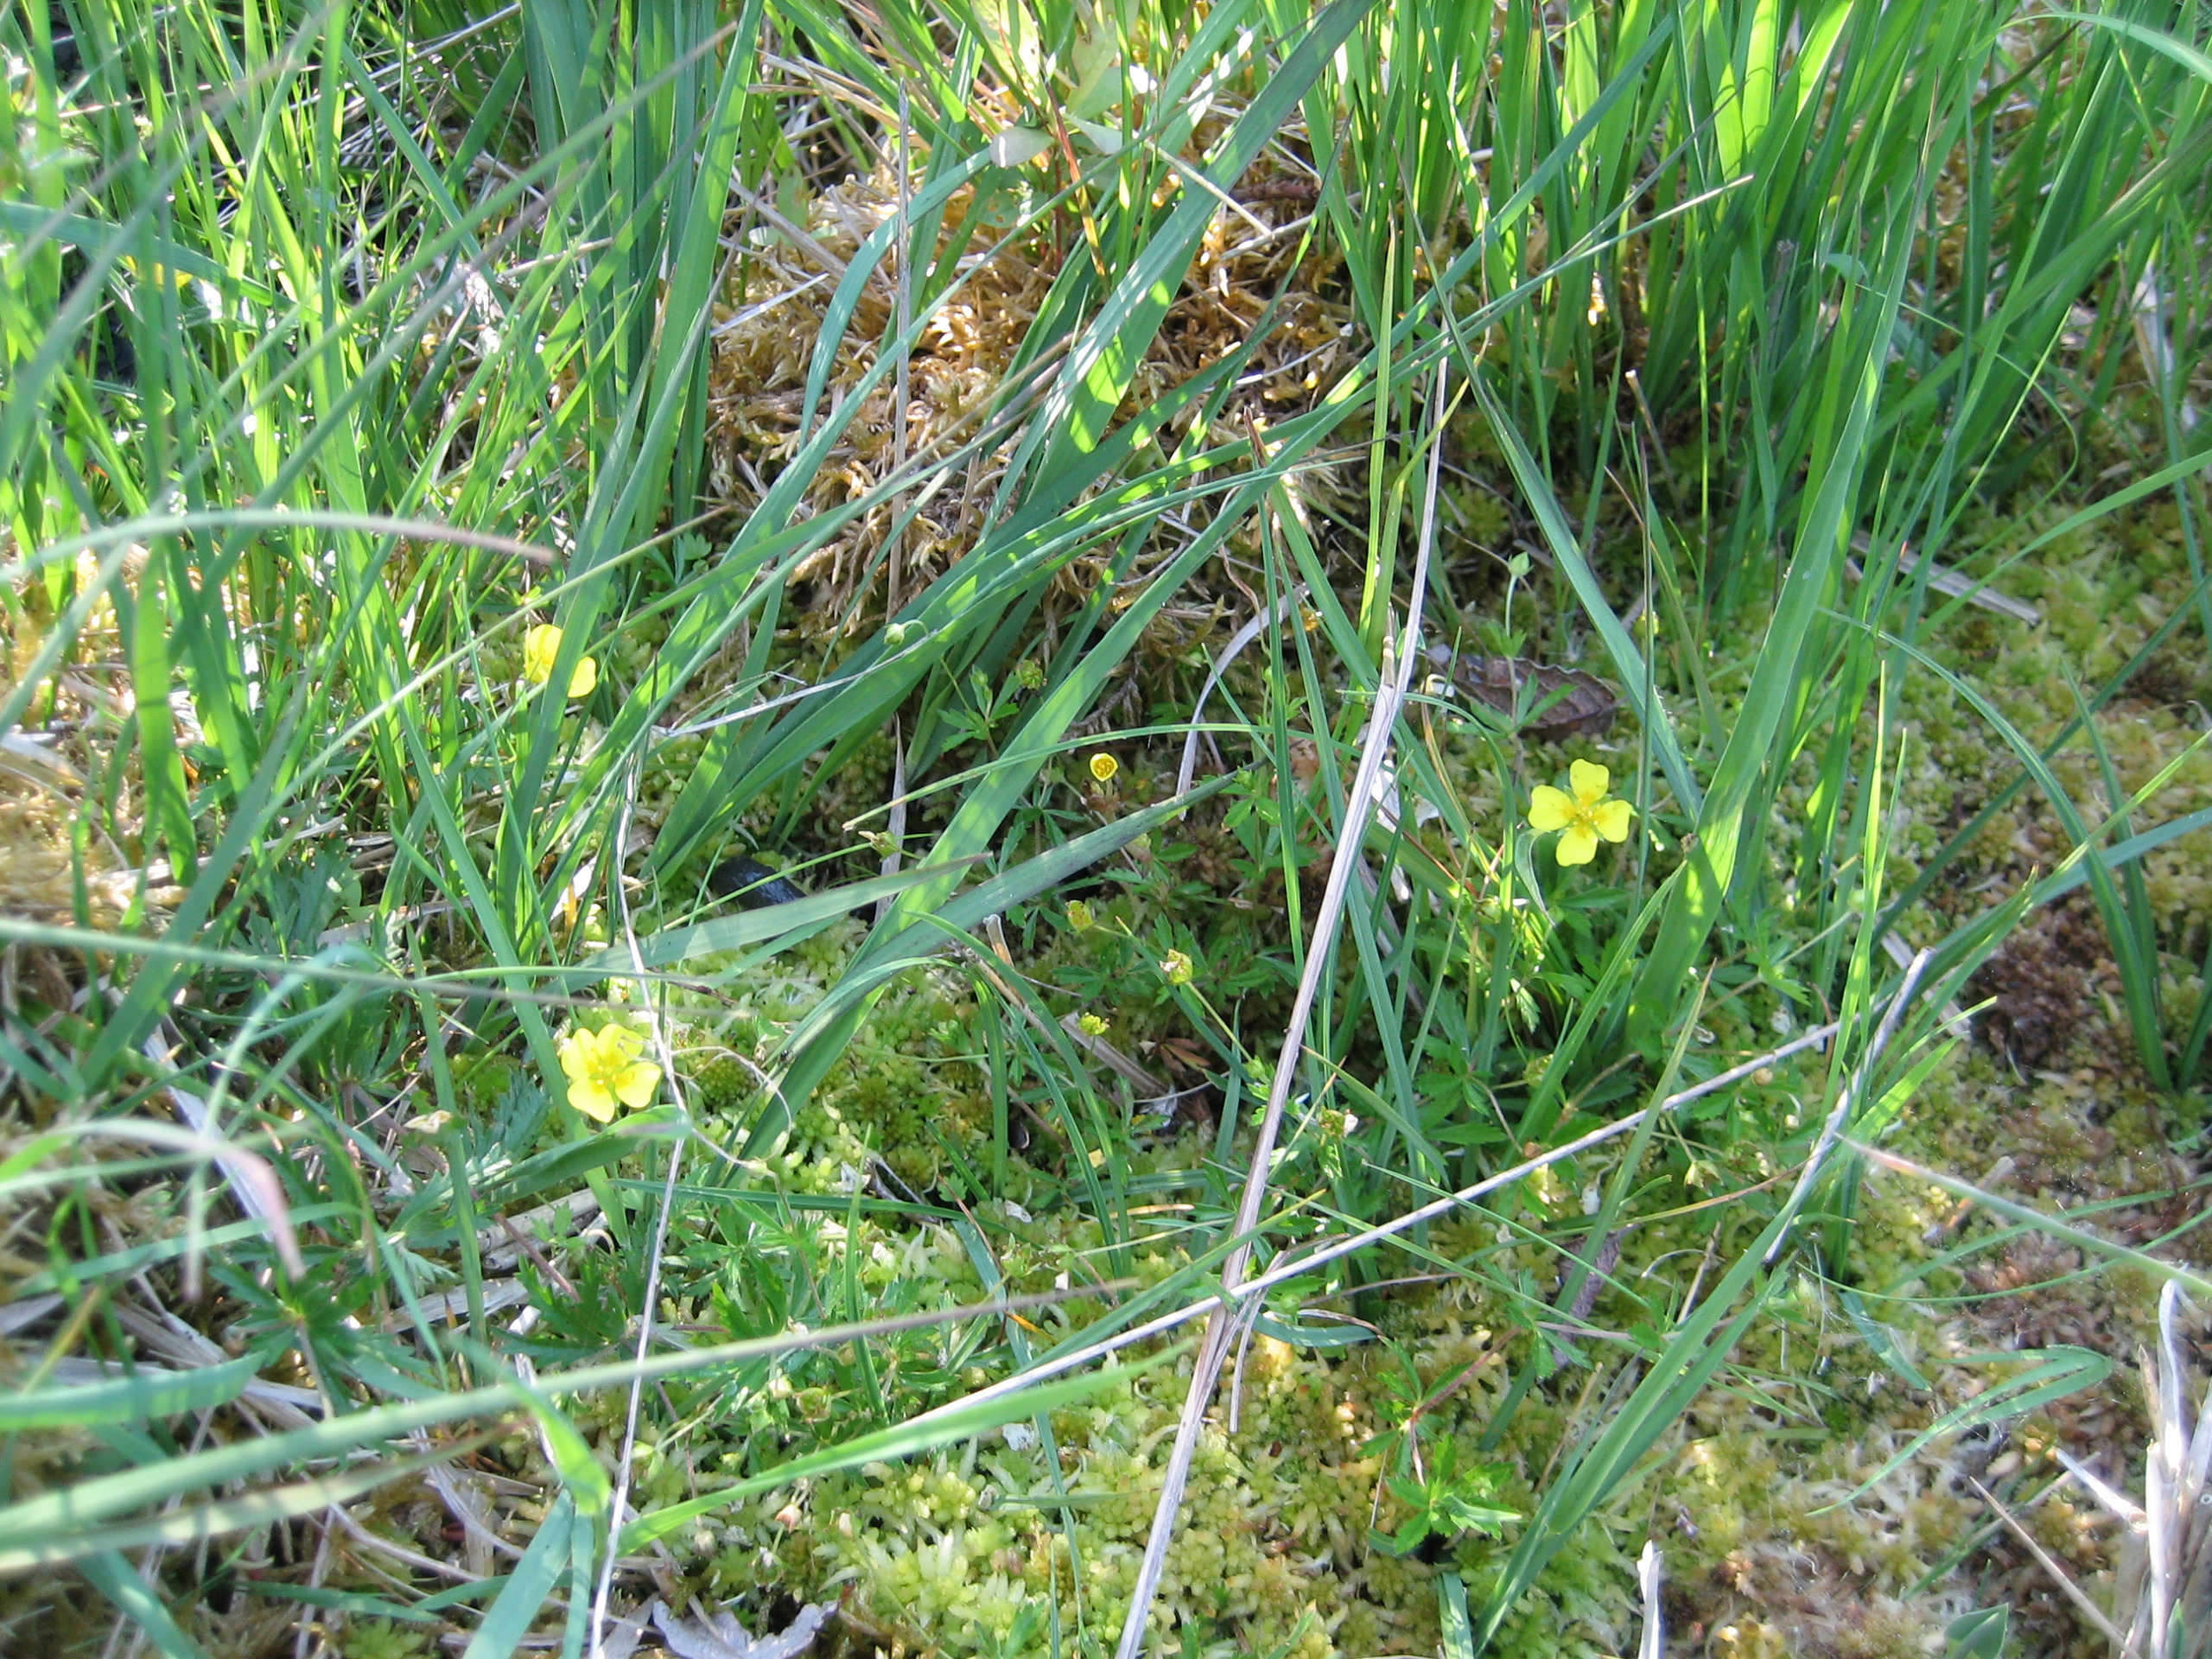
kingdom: Plantae
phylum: Tracheophyta
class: Magnoliopsida
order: Rosales
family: Rosaceae
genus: Potentilla
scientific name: Potentilla erecta
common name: Tormentil
